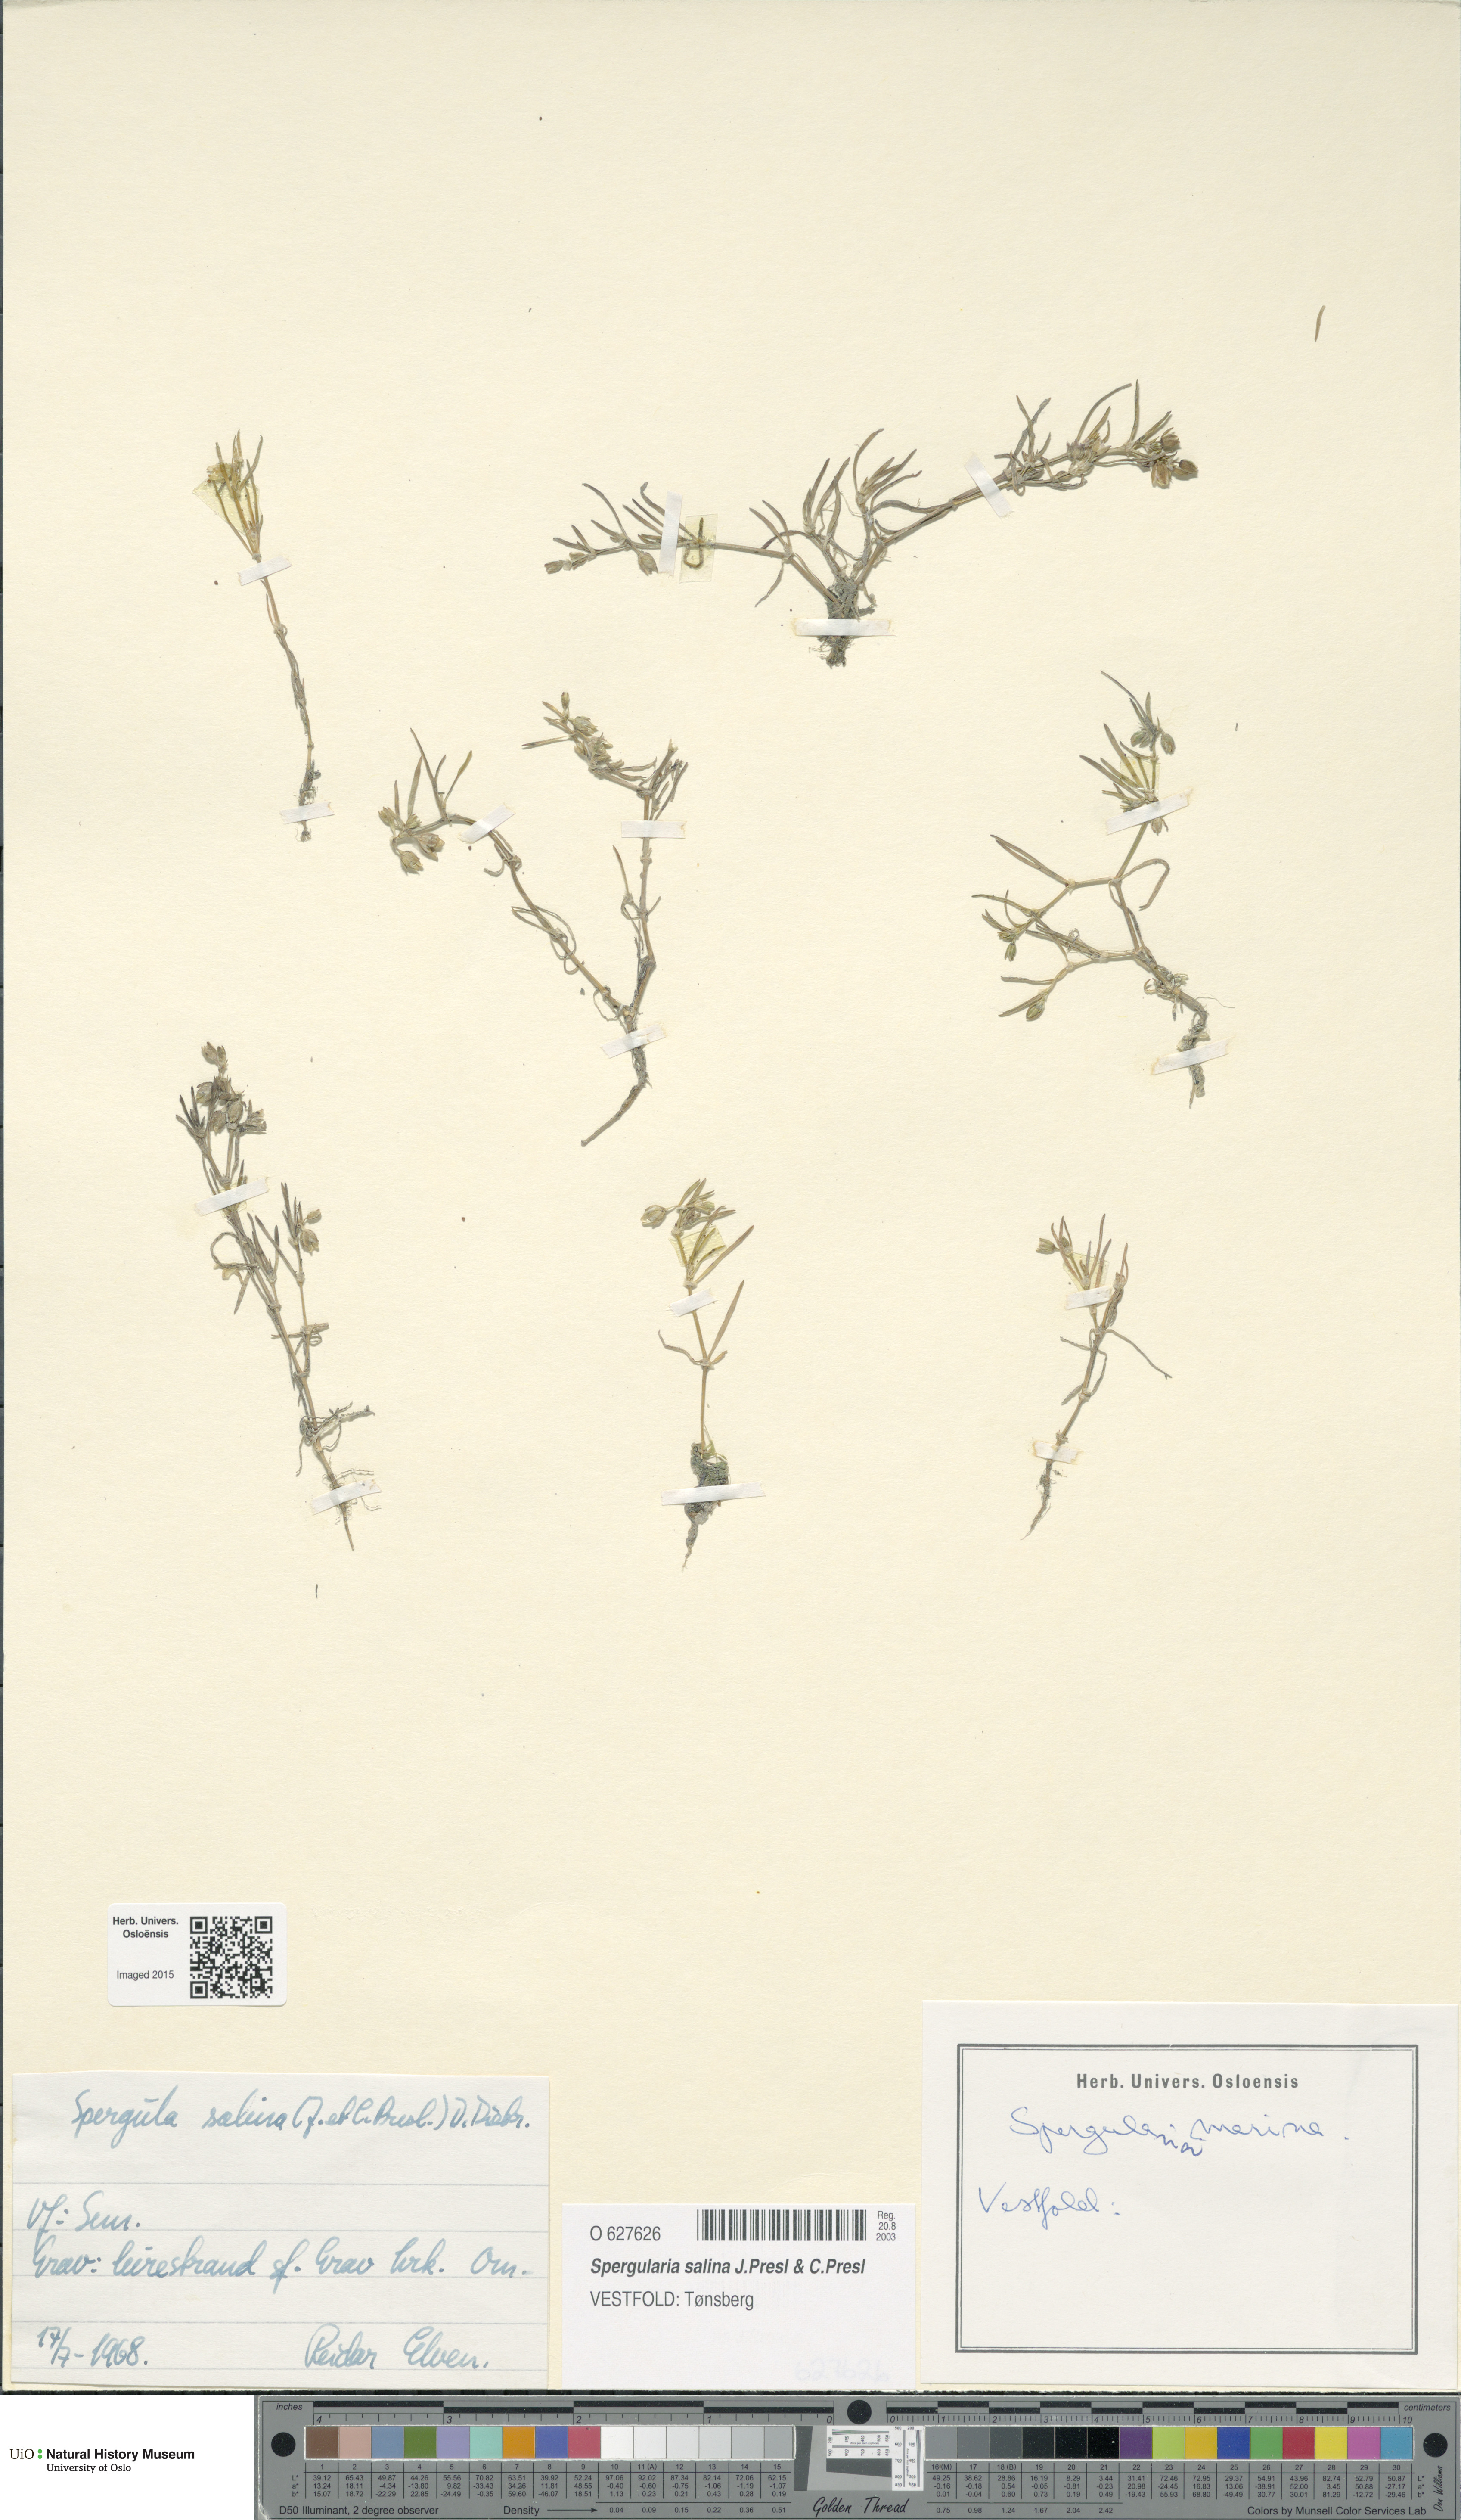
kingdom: Plantae
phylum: Tracheophyta
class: Magnoliopsida
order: Caryophyllales
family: Caryophyllaceae
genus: Spergularia
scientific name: Spergularia marina
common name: Lesser sea-spurrey
